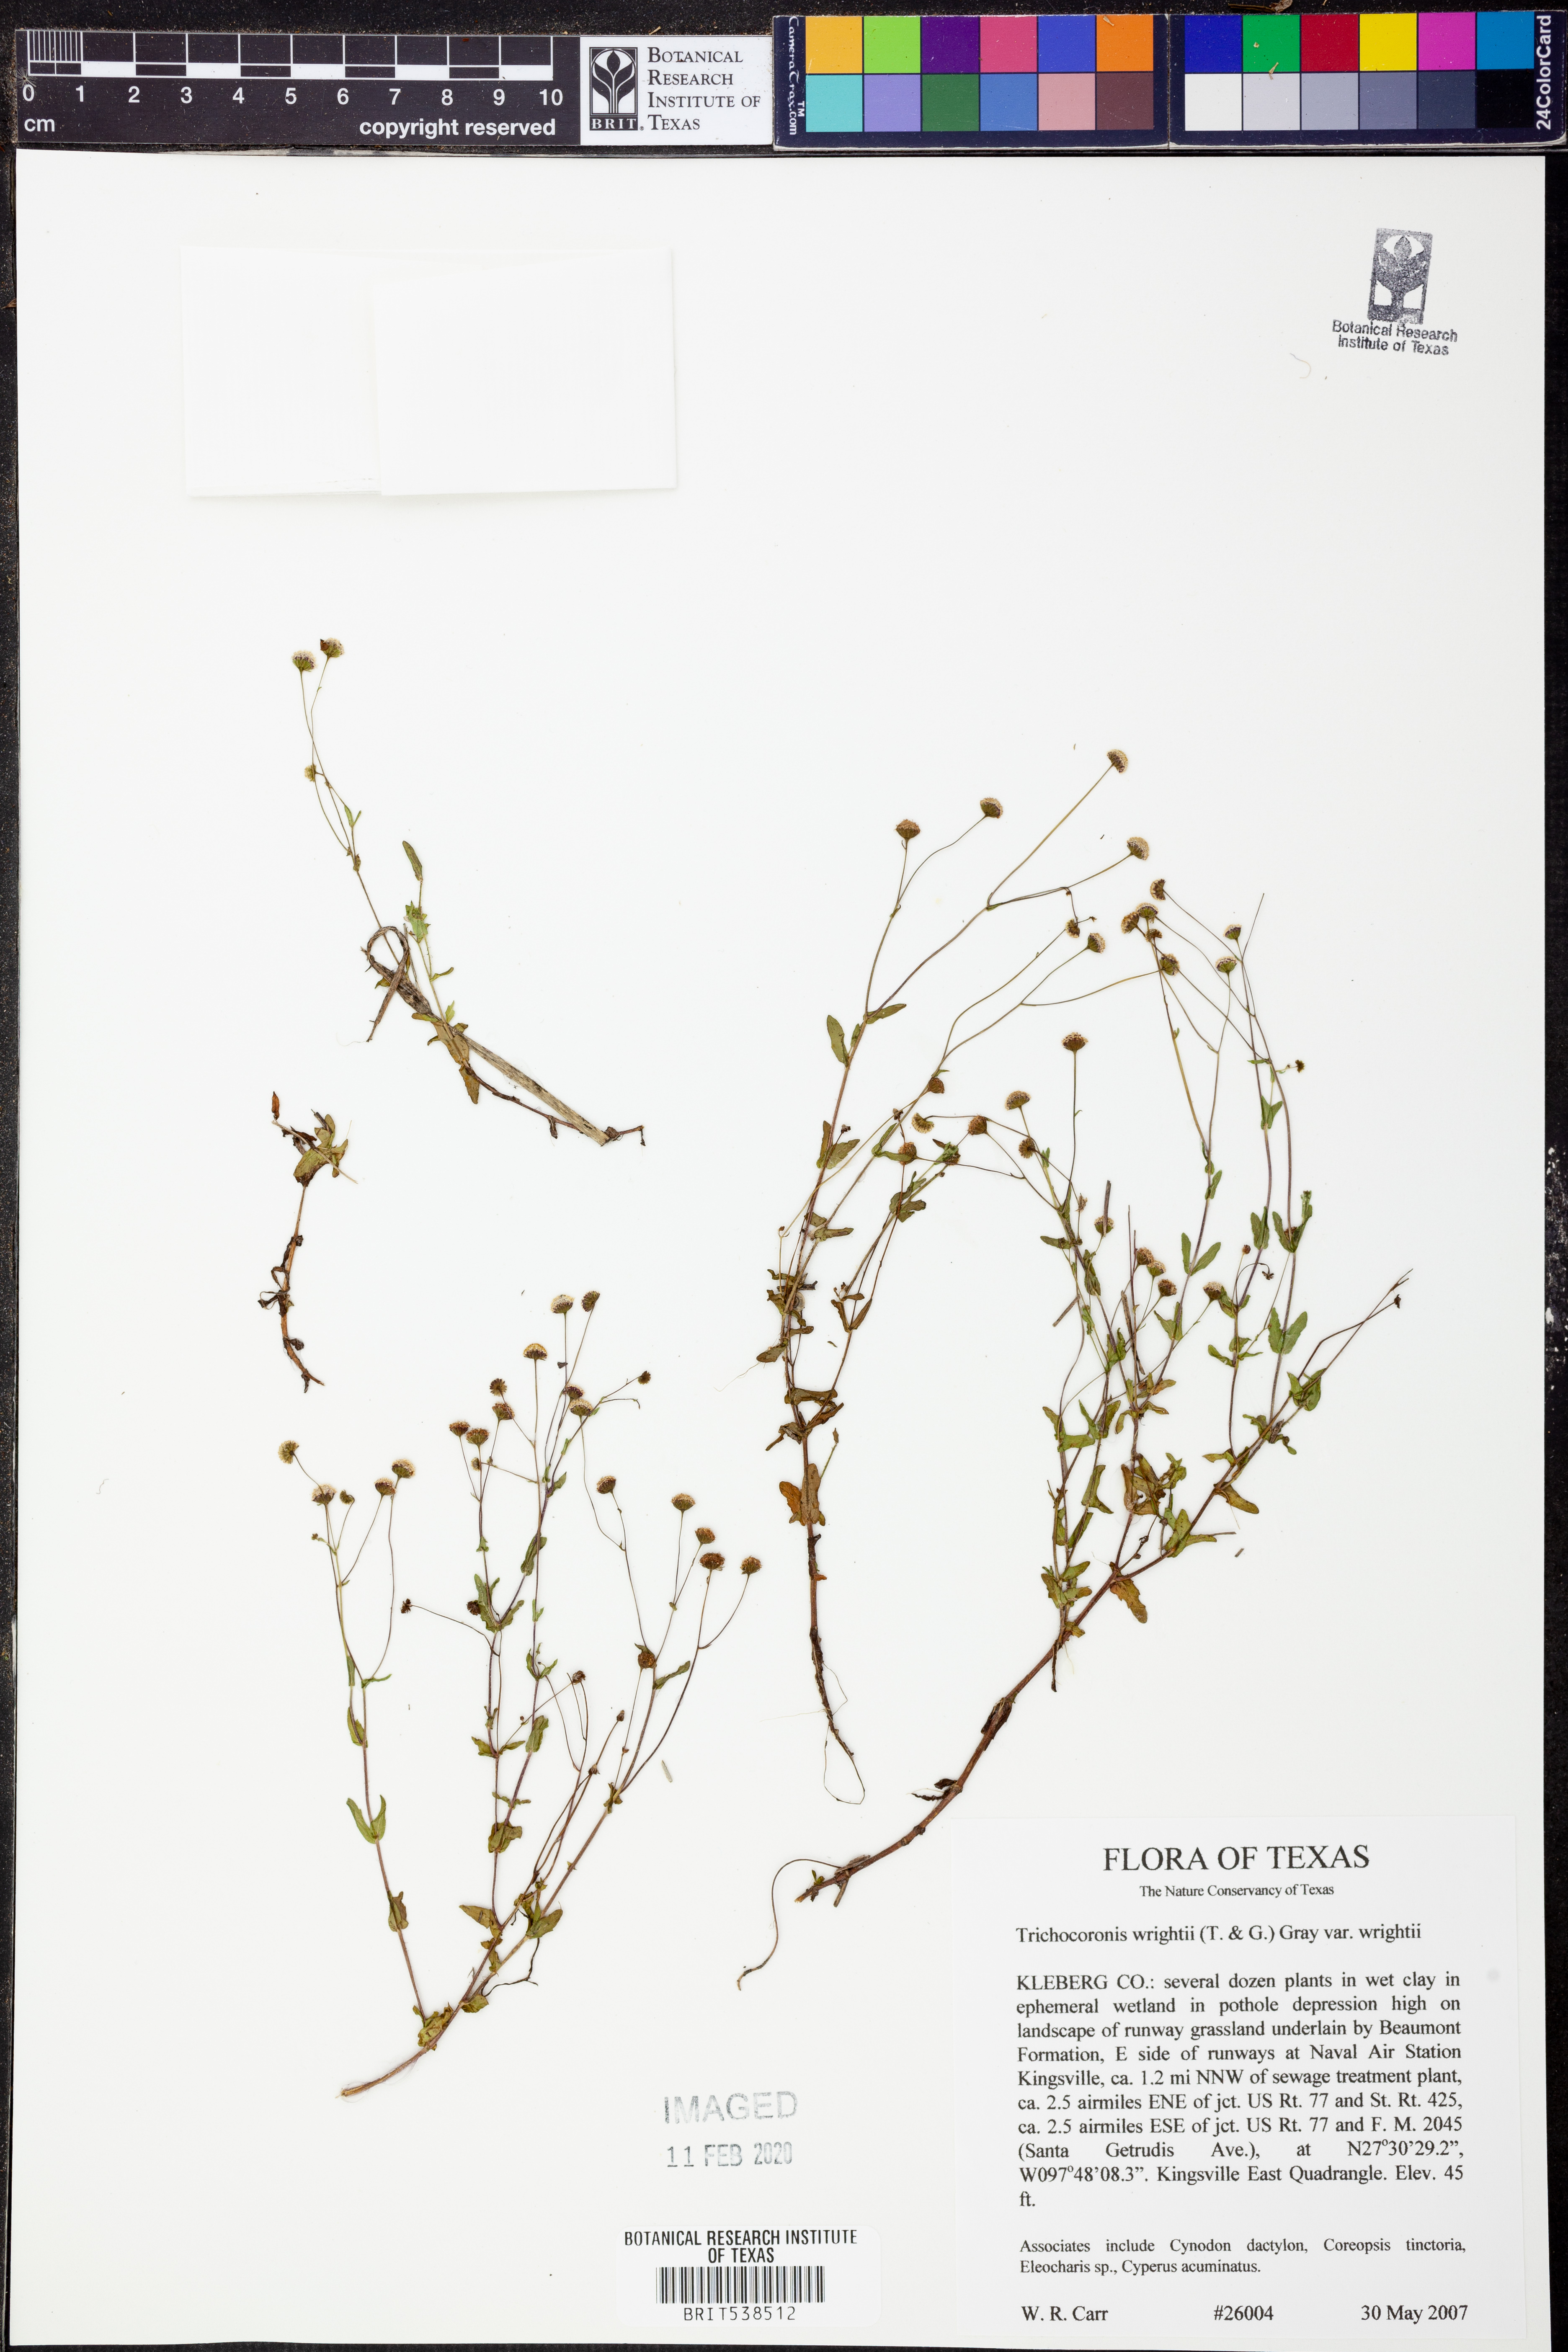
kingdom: Plantae
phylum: Tracheophyta
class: Magnoliopsida
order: Asterales
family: Asteraceae
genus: Trichocoronis
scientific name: Trichocoronis wrightii
